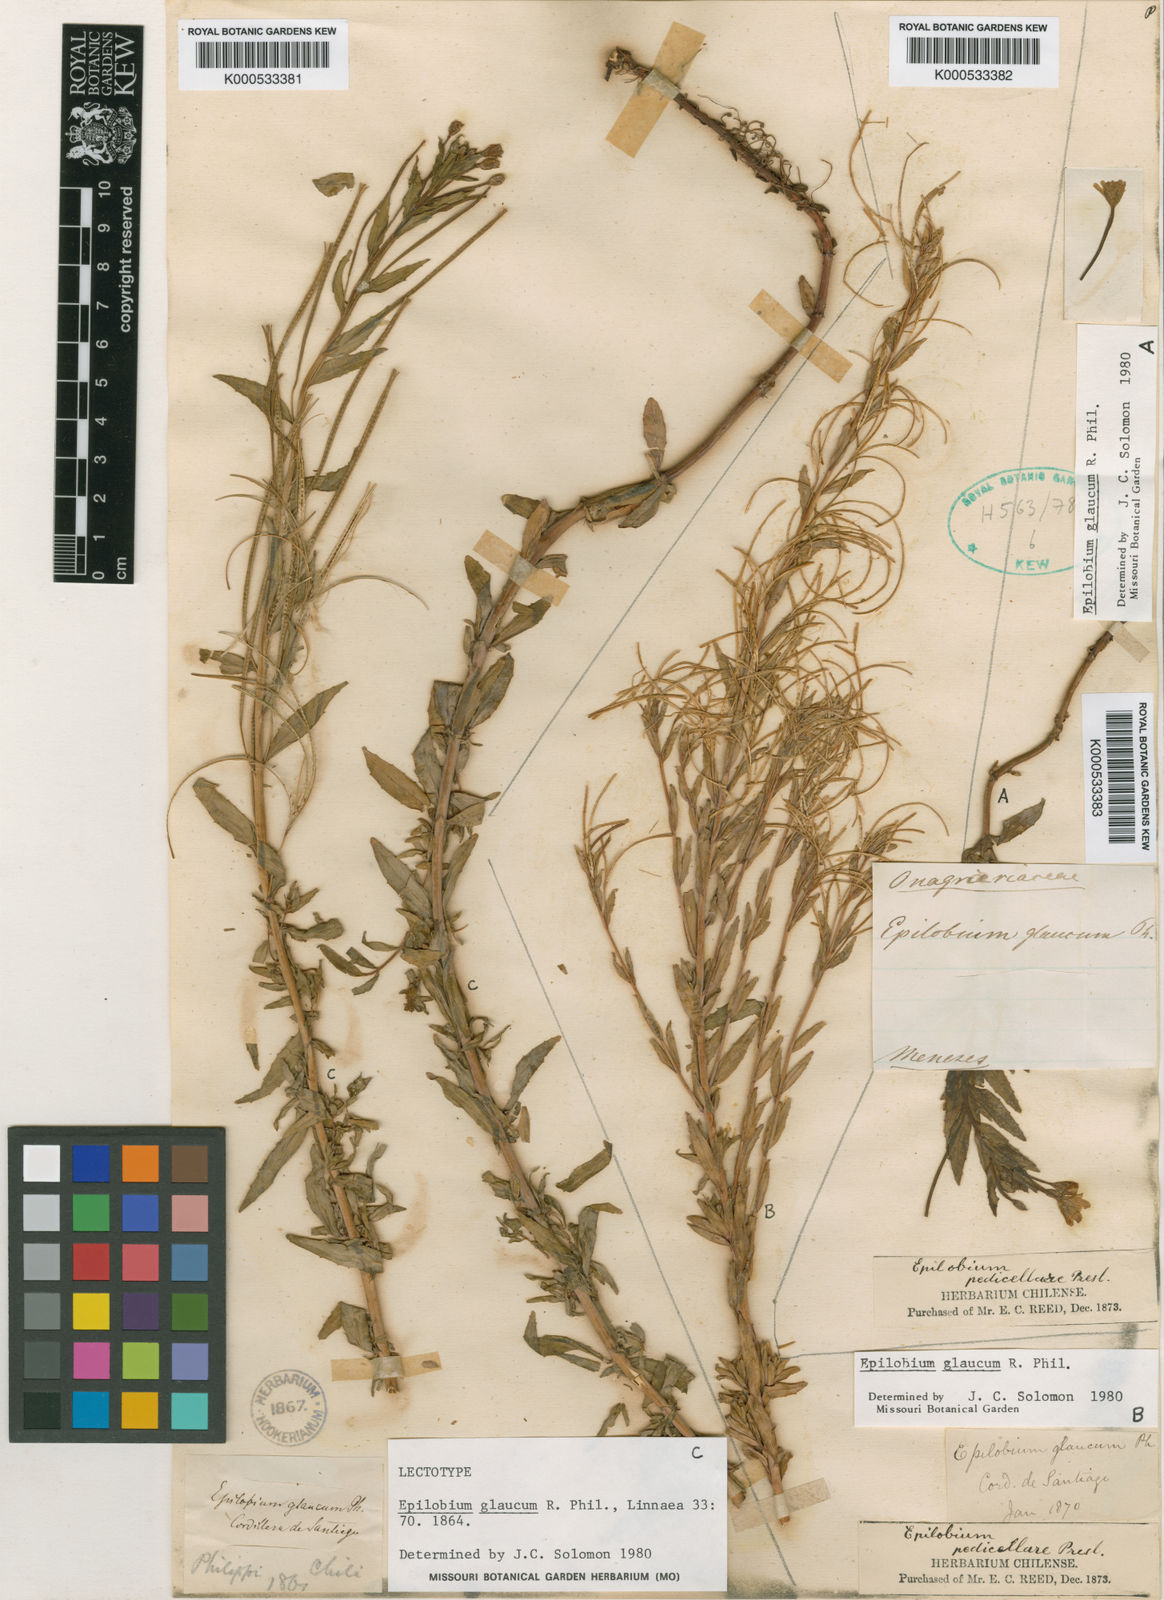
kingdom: Plantae
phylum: Tracheophyta
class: Magnoliopsida
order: Myrtales
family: Onagraceae
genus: Epilobium
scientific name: Epilobium glaucum
